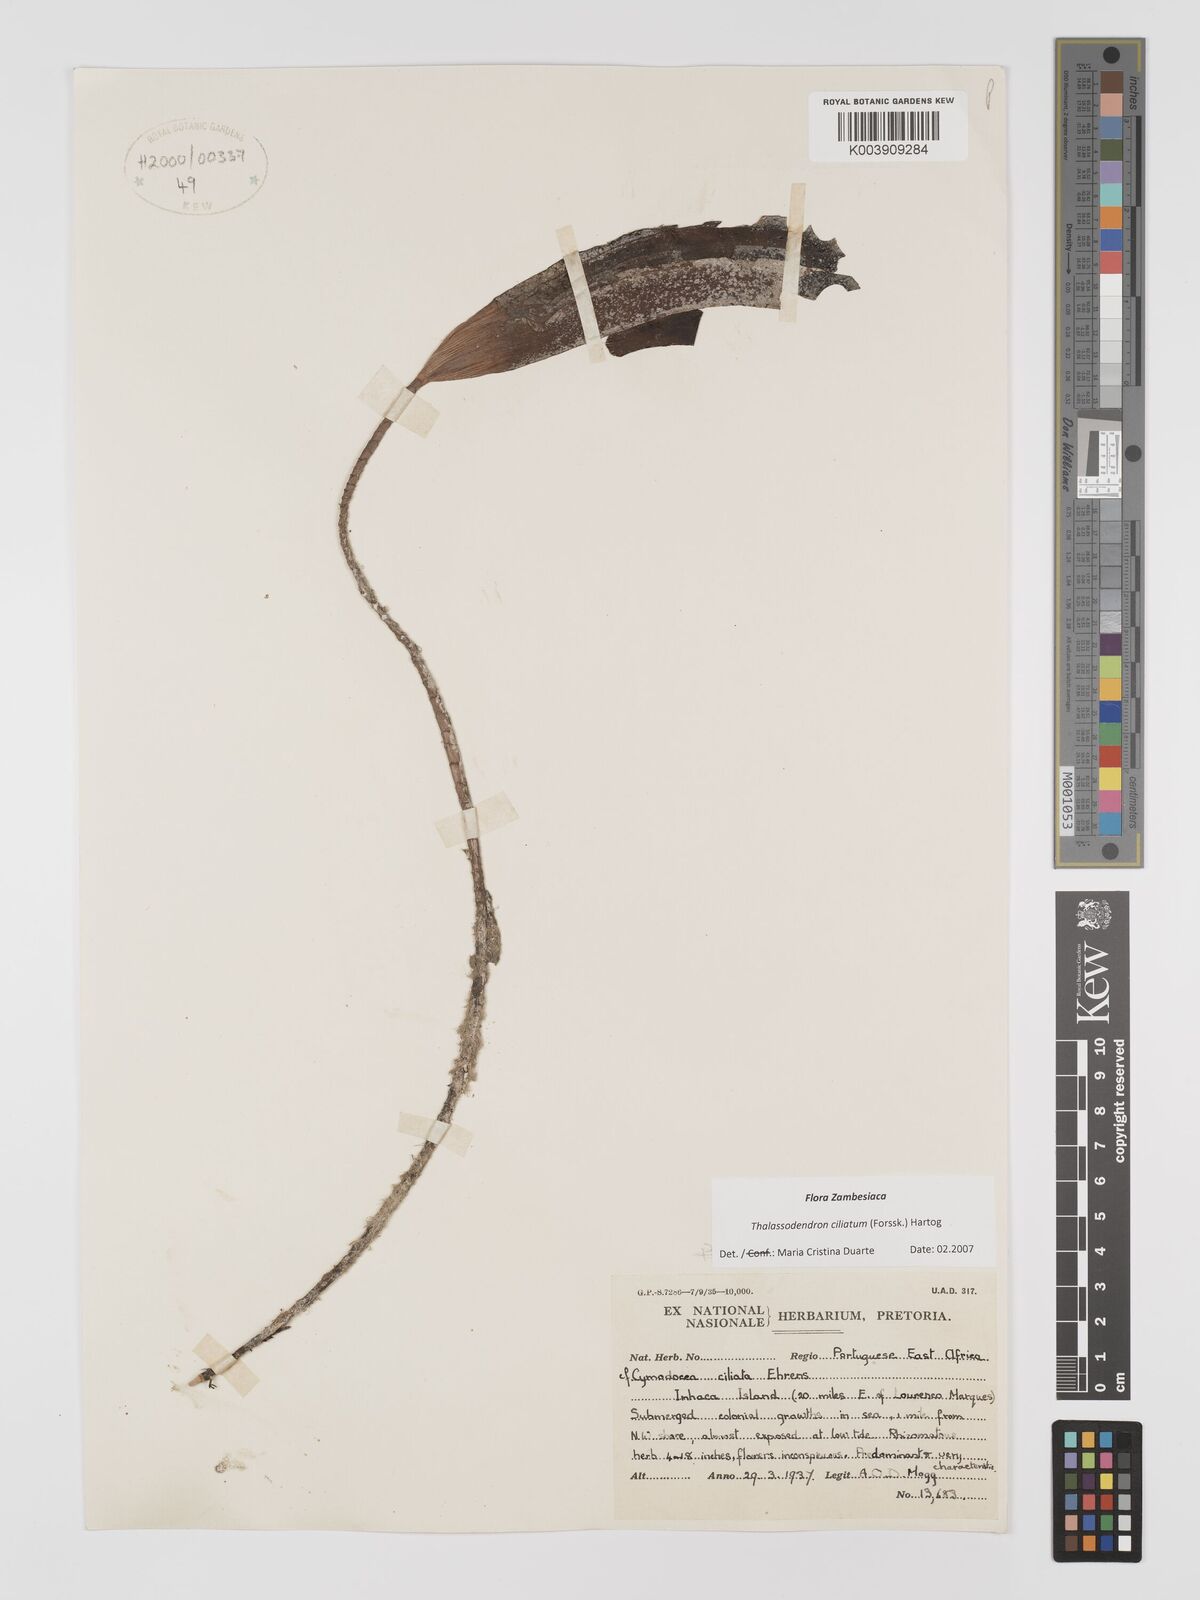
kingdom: Plantae
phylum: Tracheophyta
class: Liliopsida
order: Alismatales
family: Cymodoceaceae
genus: Thalassodendron
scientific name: Thalassodendron ciliatum
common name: Species code: tc
